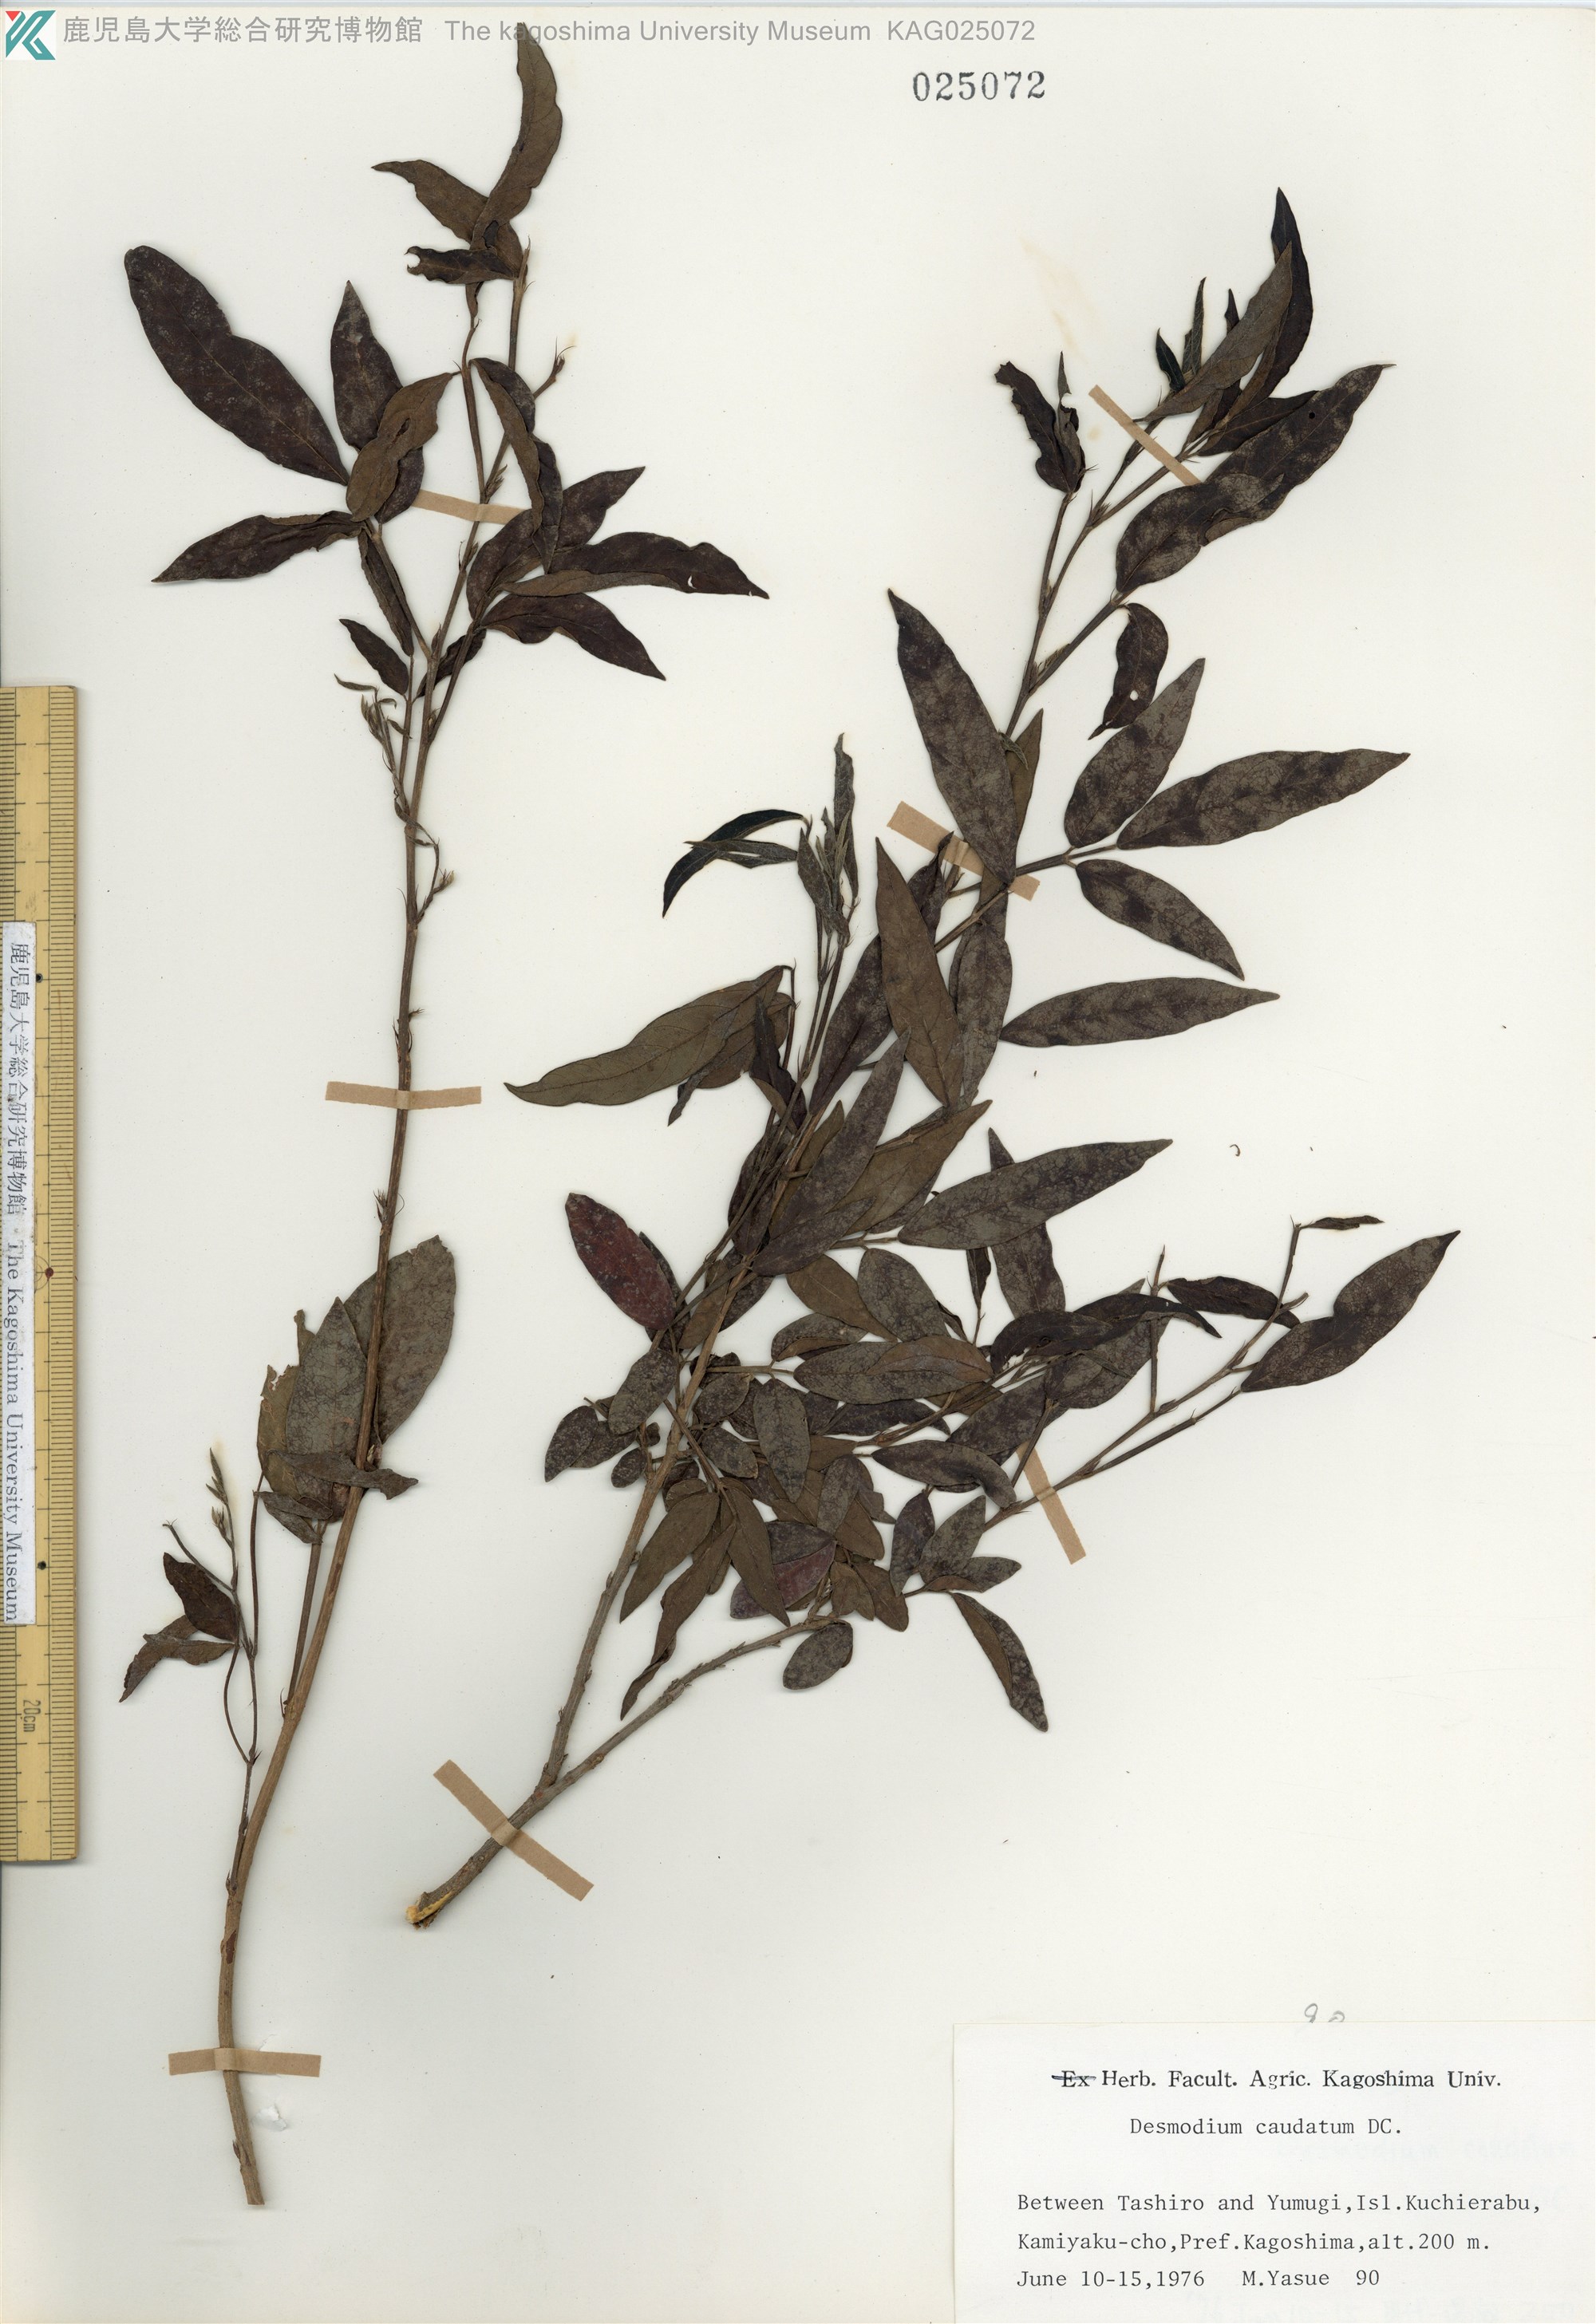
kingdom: Plantae
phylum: Tracheophyta
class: Magnoliopsida
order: Fabales
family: Fabaceae
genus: Ohwia
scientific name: Ohwia caudata
